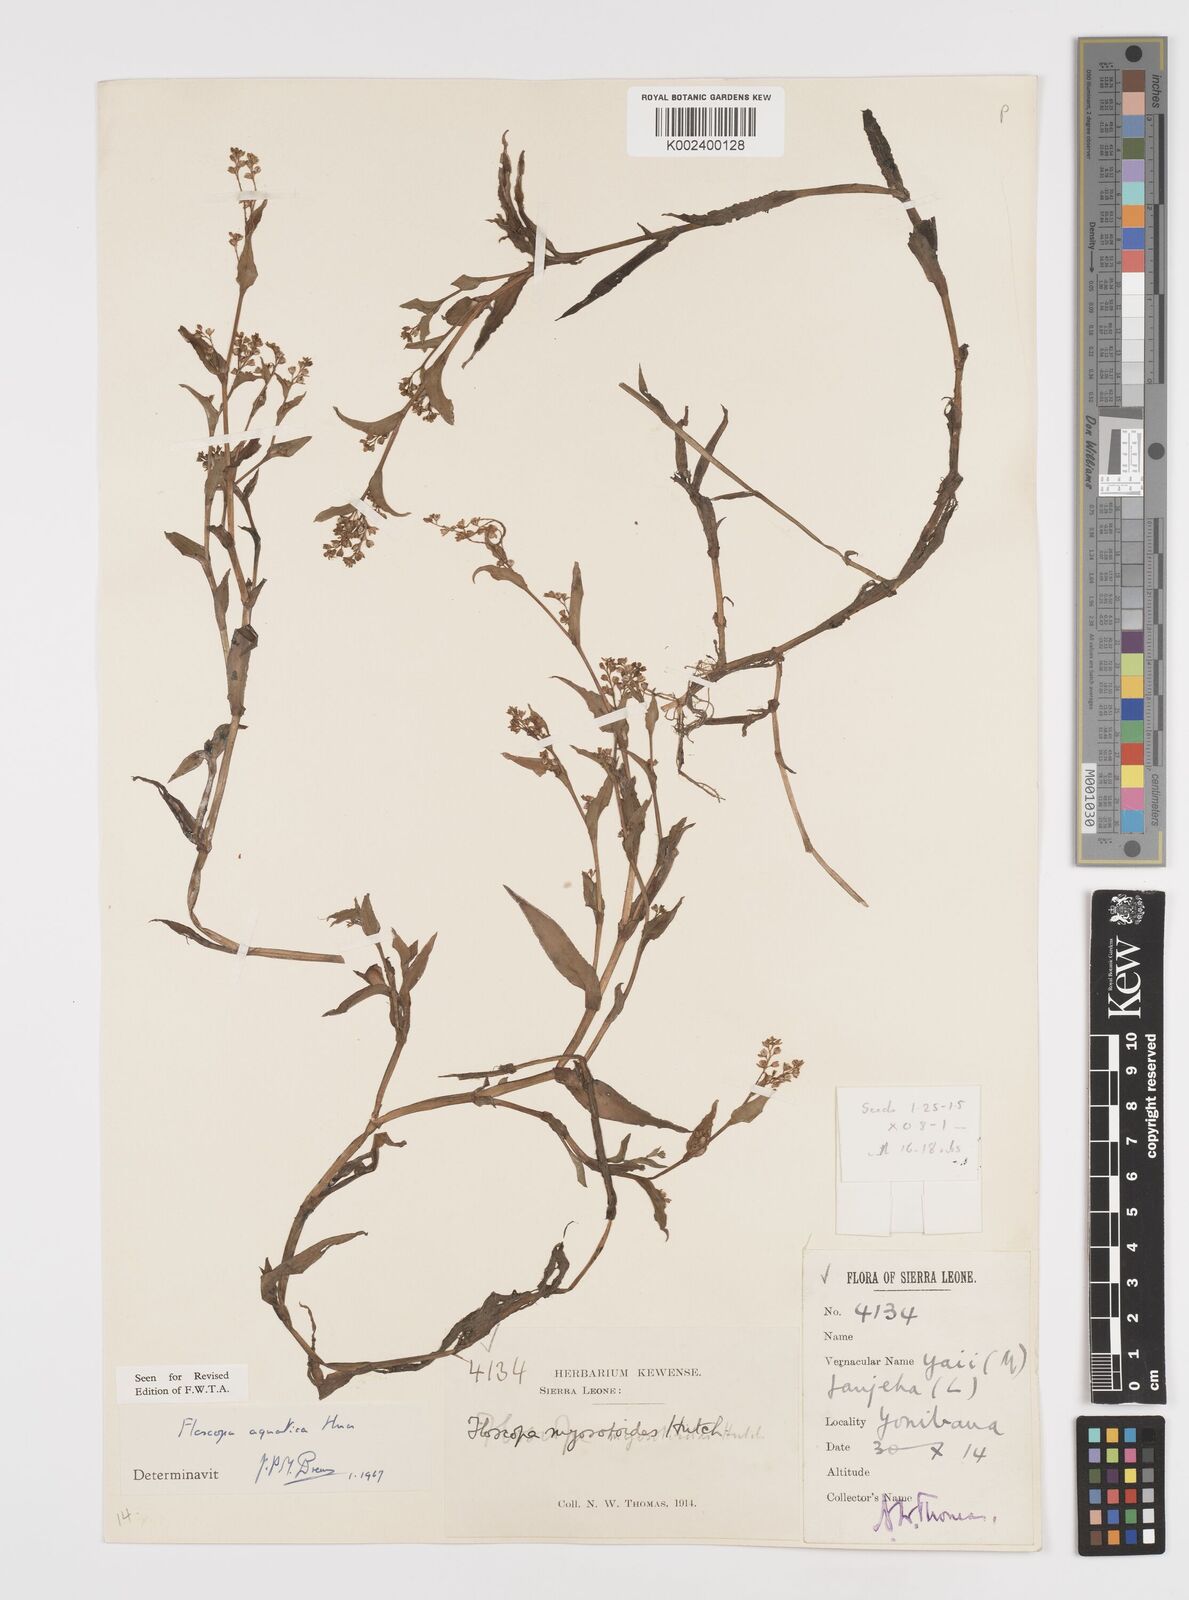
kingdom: Plantae
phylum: Tracheophyta
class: Liliopsida
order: Commelinales
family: Commelinaceae
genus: Floscopa
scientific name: Floscopa aquatica
